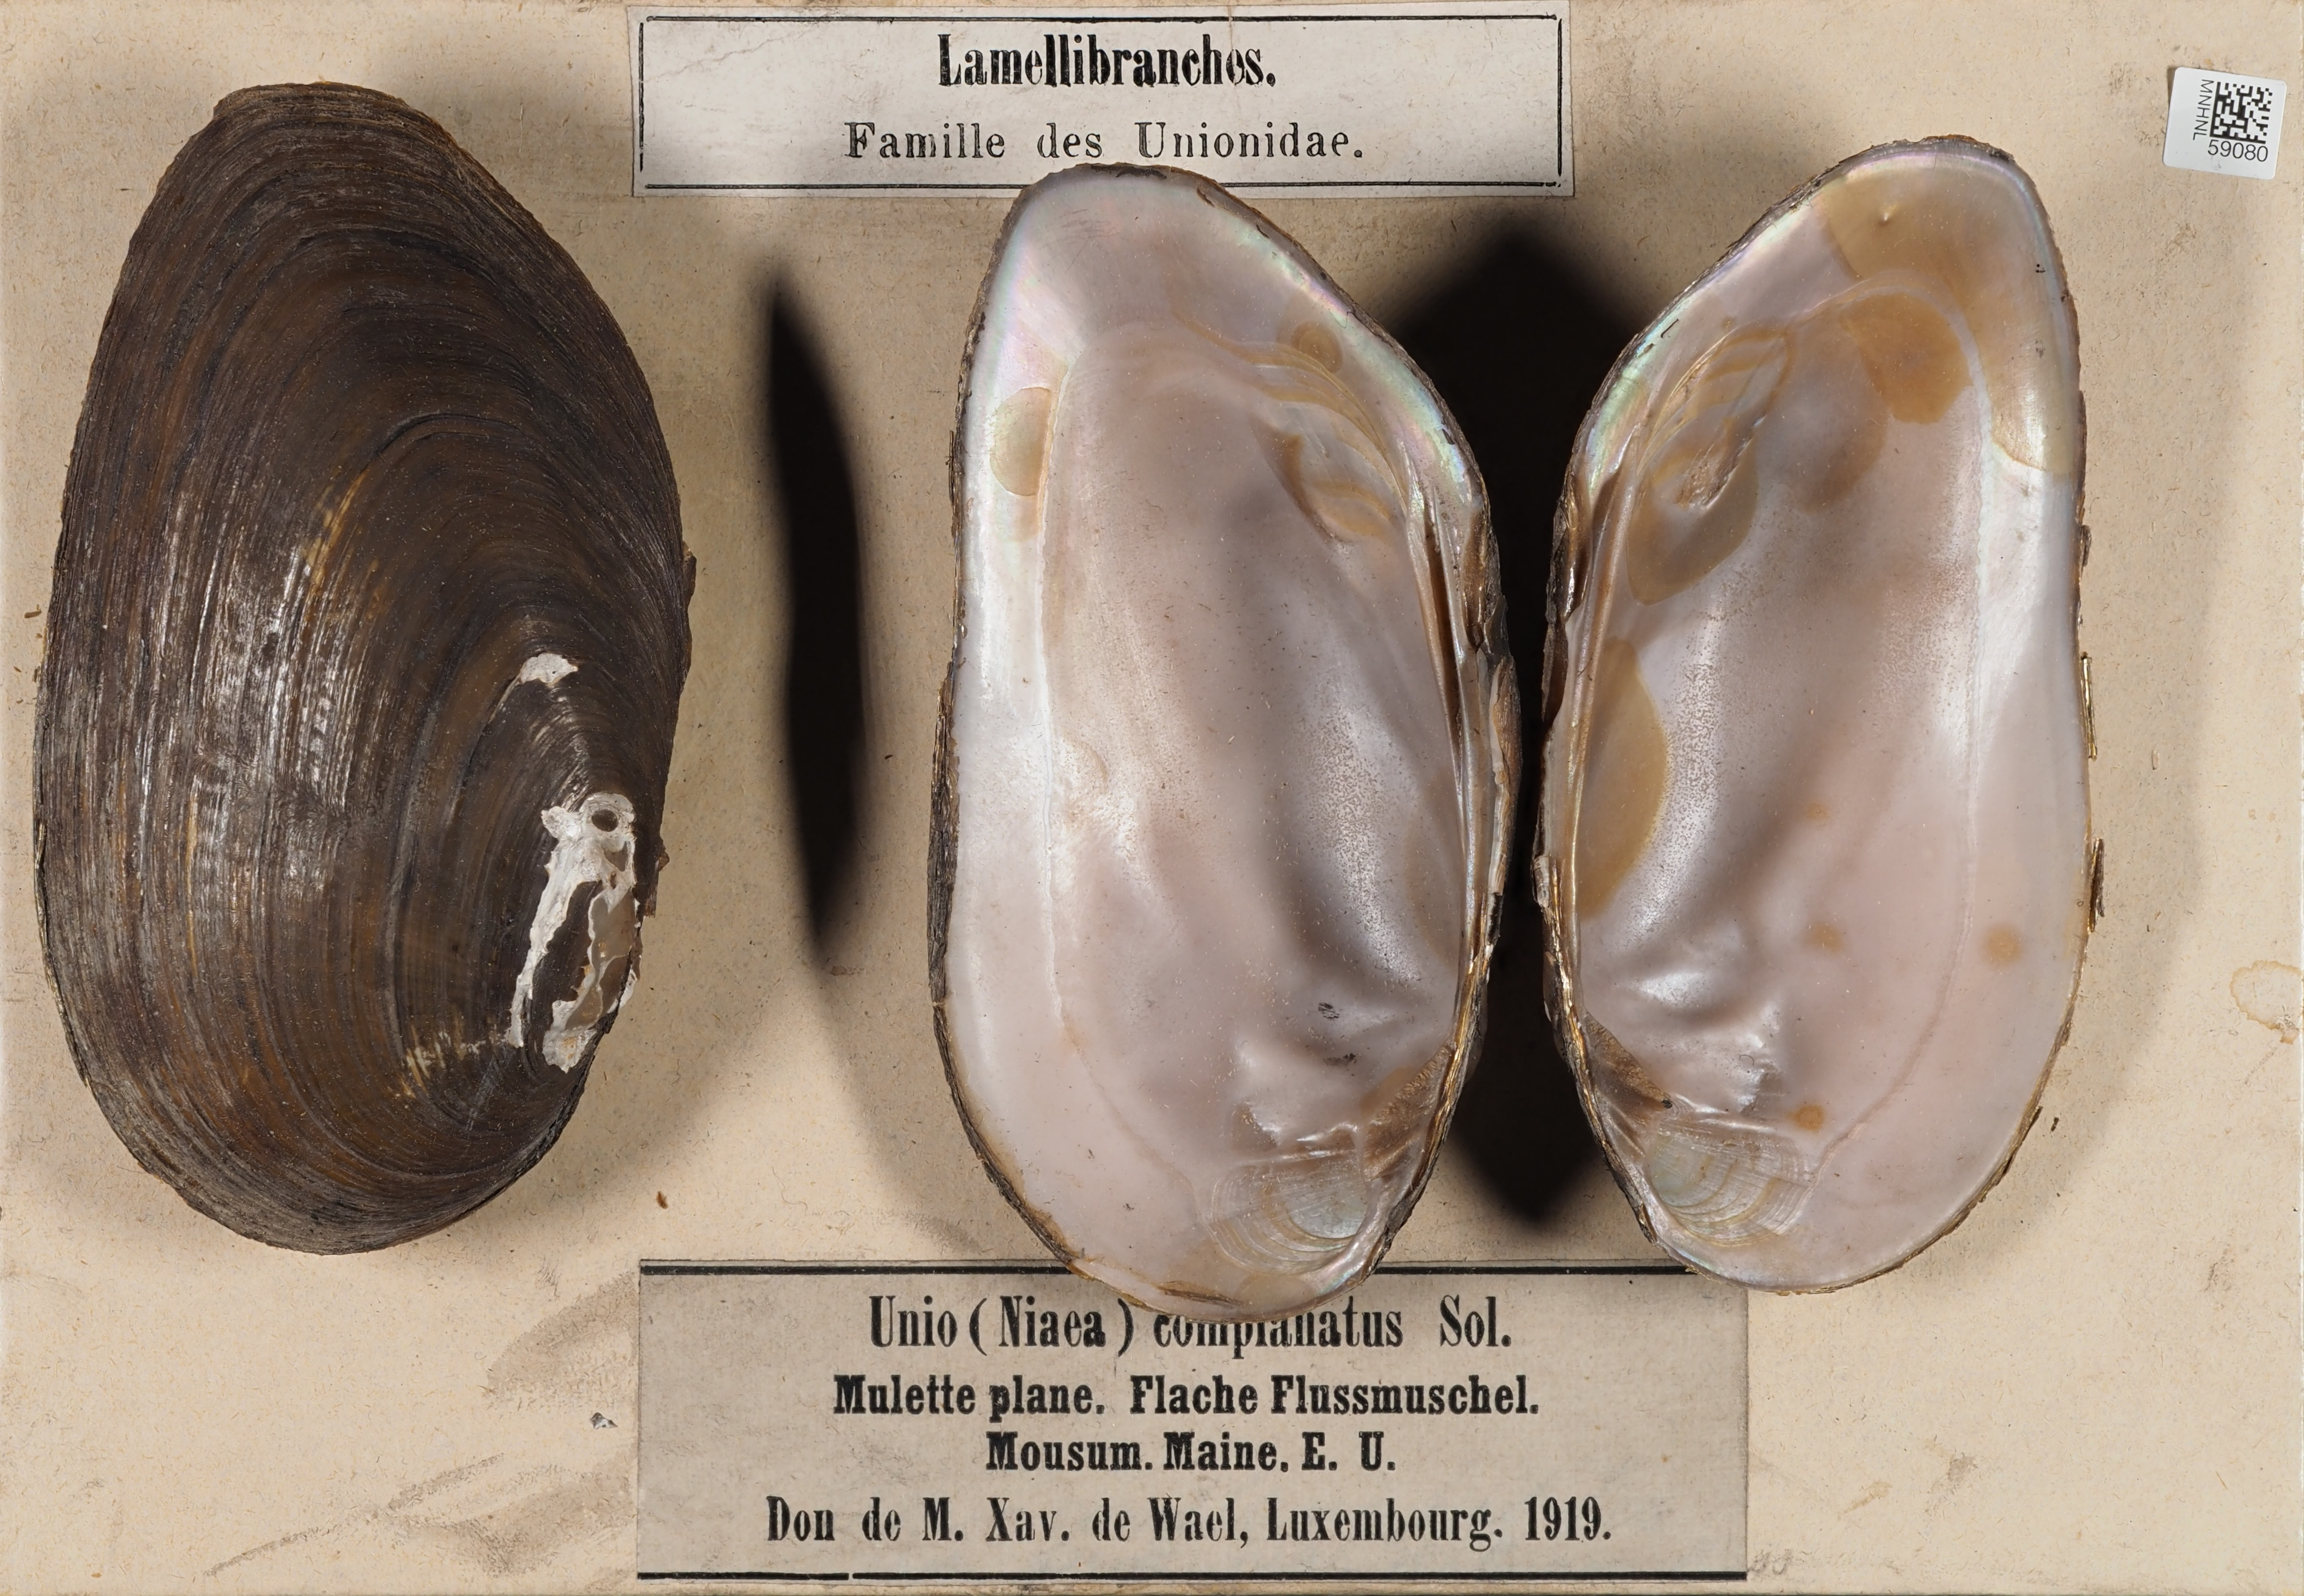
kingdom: Animalia
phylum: Mollusca
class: Bivalvia
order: Unionida
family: Unionidae
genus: Elliptio
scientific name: Elliptio complanata
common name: Eastern elliptio
